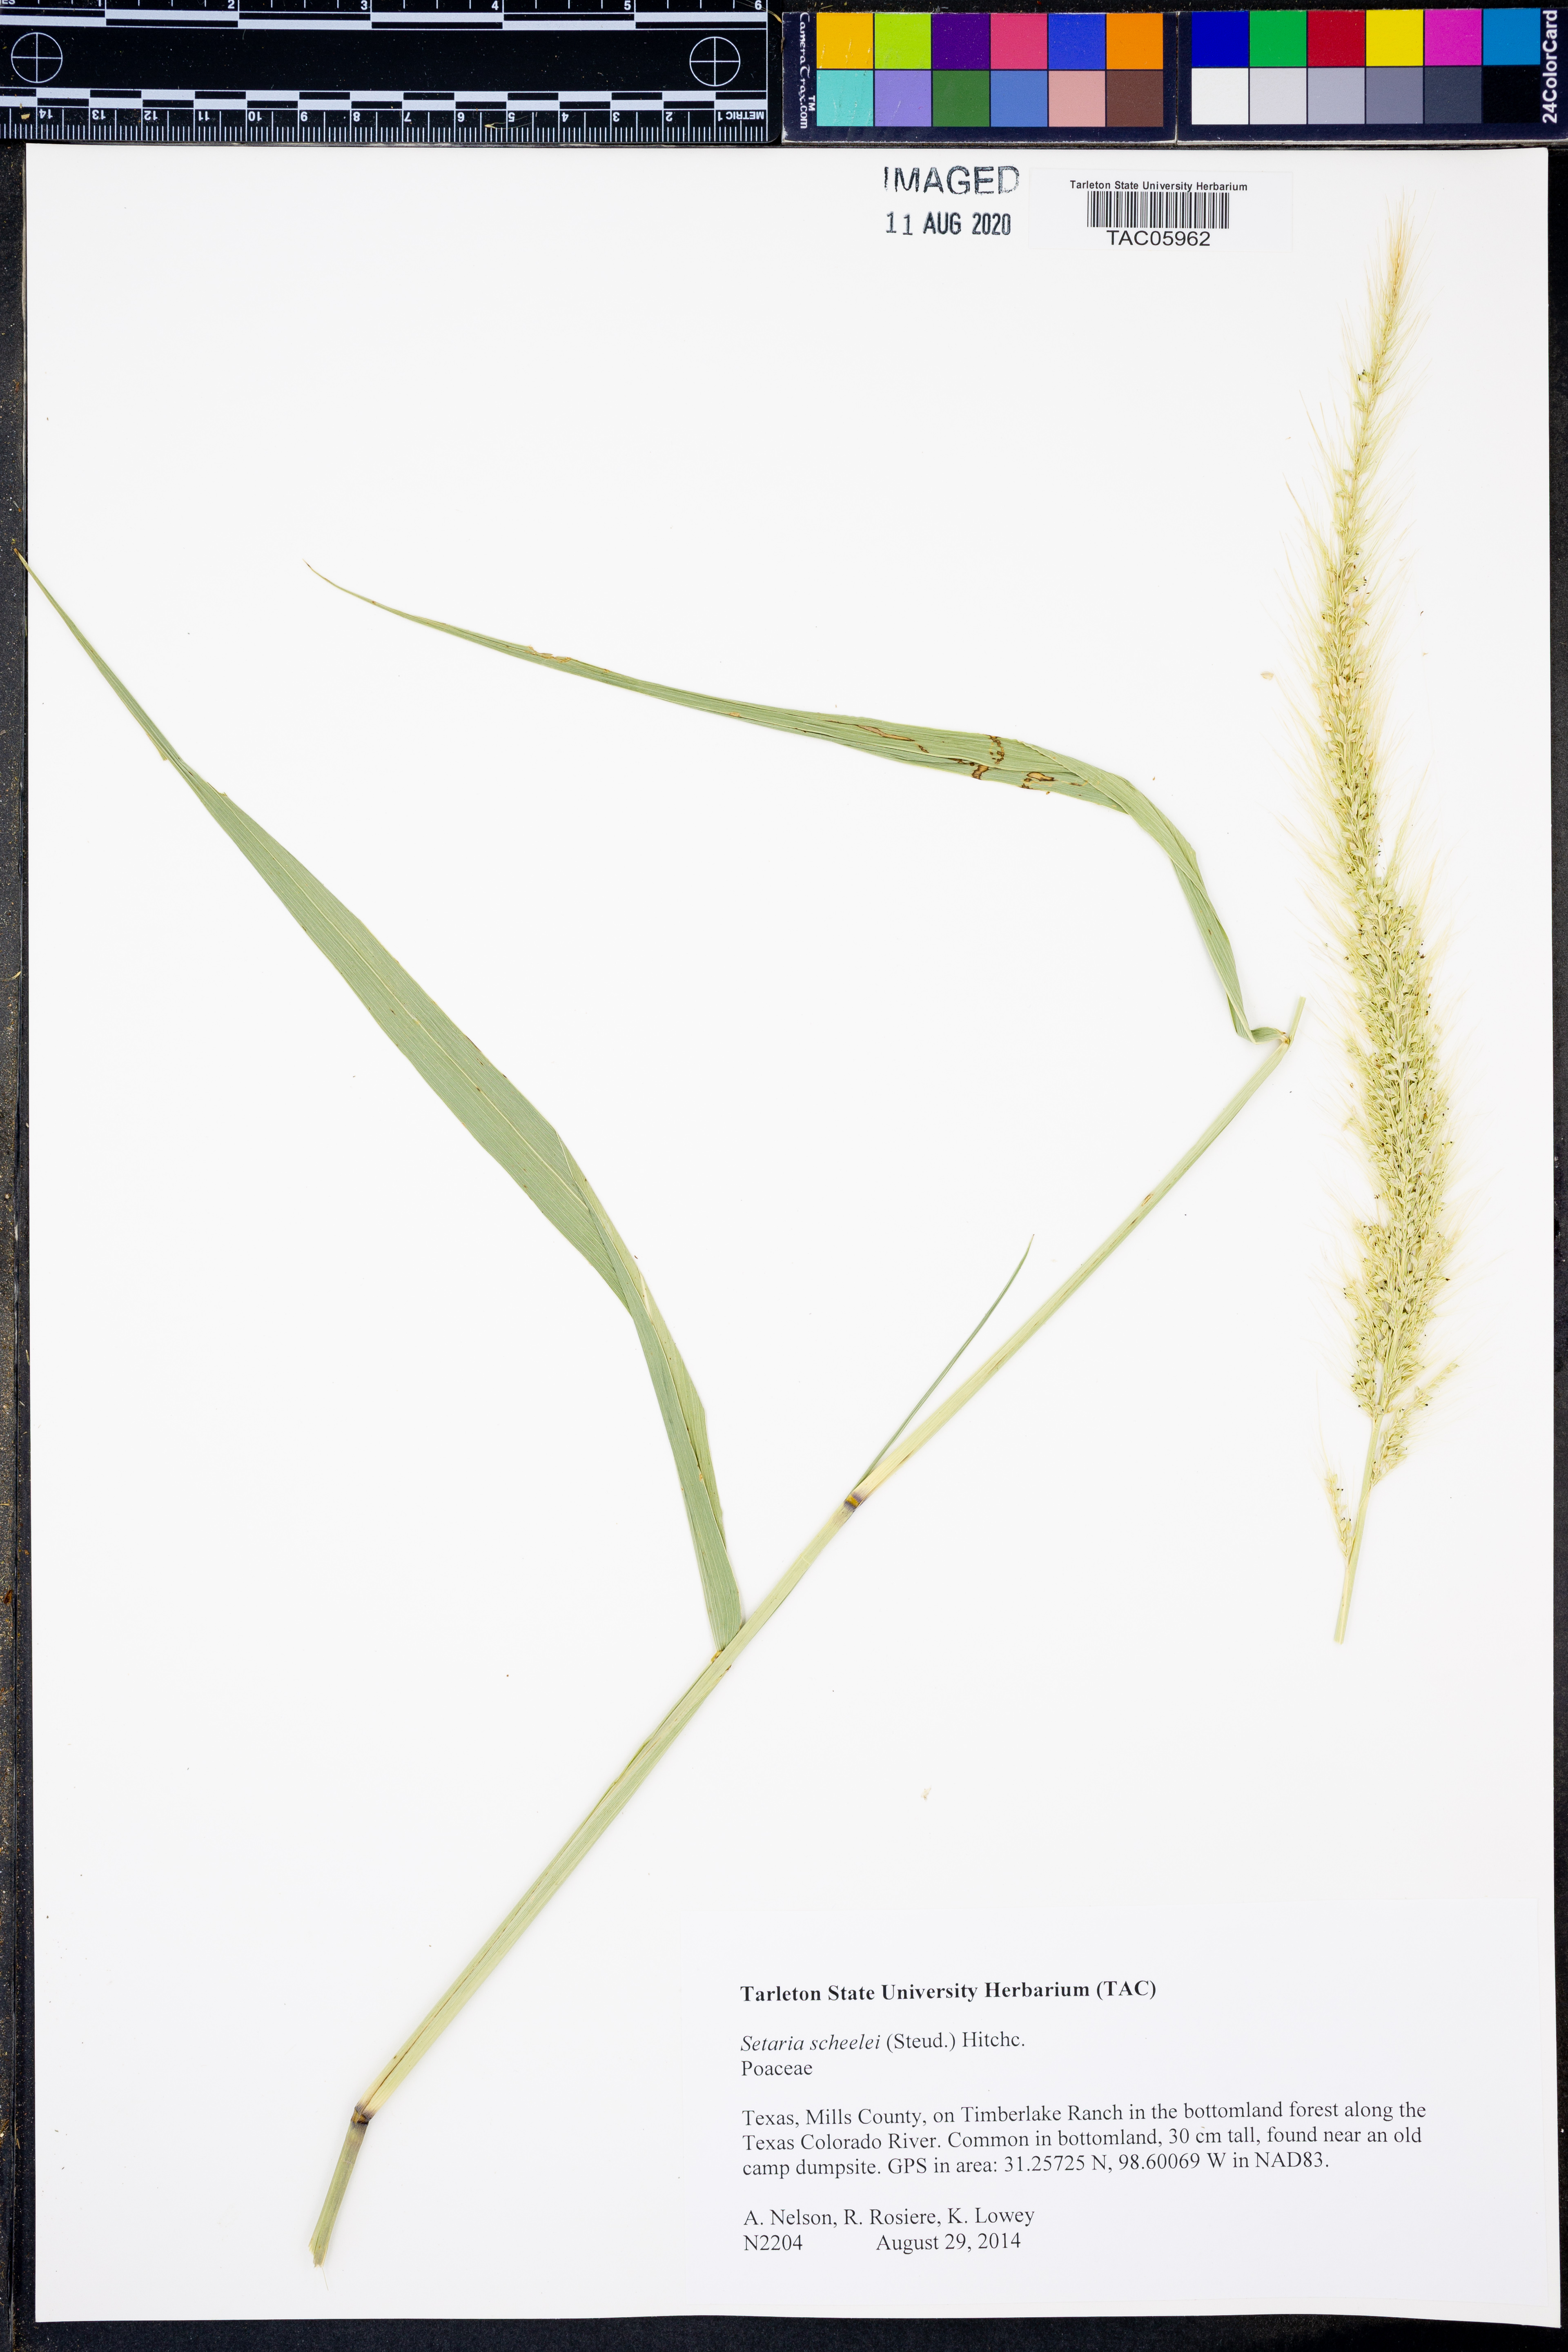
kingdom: Plantae
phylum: Tracheophyta
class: Liliopsida
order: Poales
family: Poaceae
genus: Setaria
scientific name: Setaria scheelei
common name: Southwestern bristle grass
